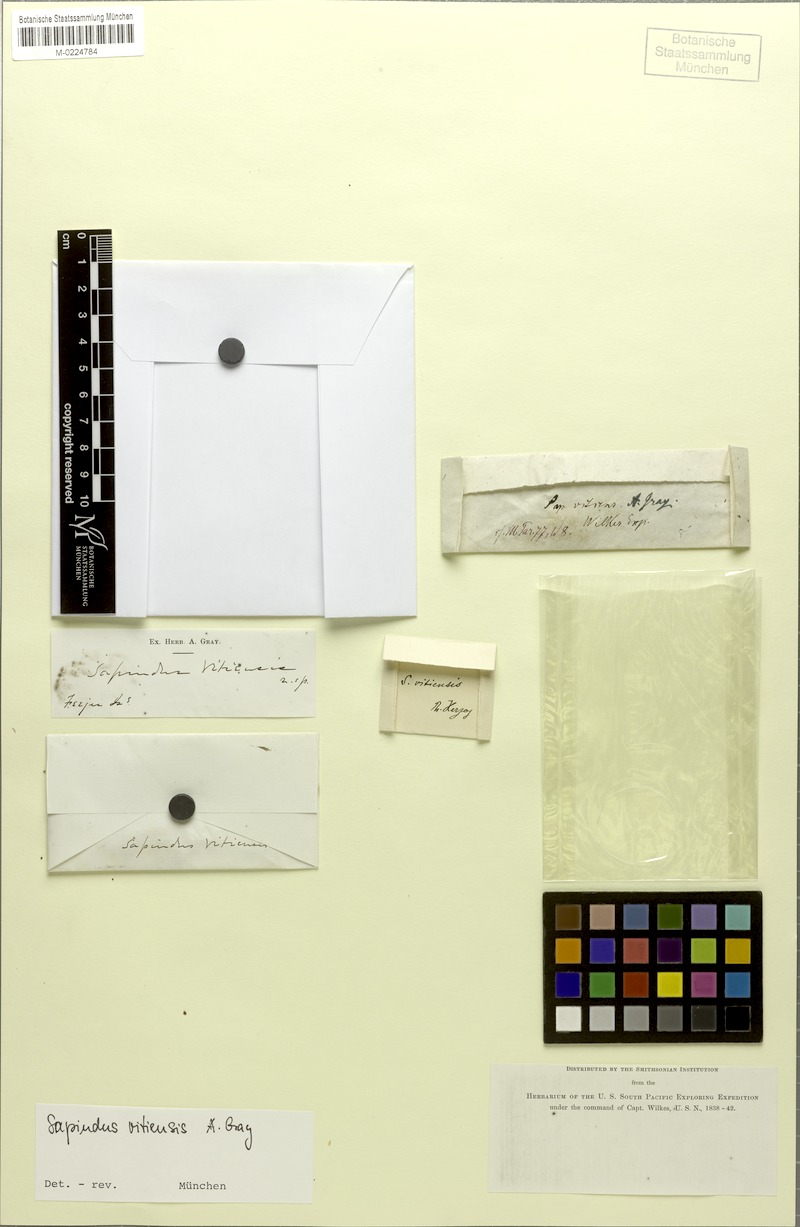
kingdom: Plantae
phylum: Tracheophyta
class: Magnoliopsida
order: Sapindales
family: Sapindaceae
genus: Sapindus
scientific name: Sapindus saponaria
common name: Wingleaf soapberry
